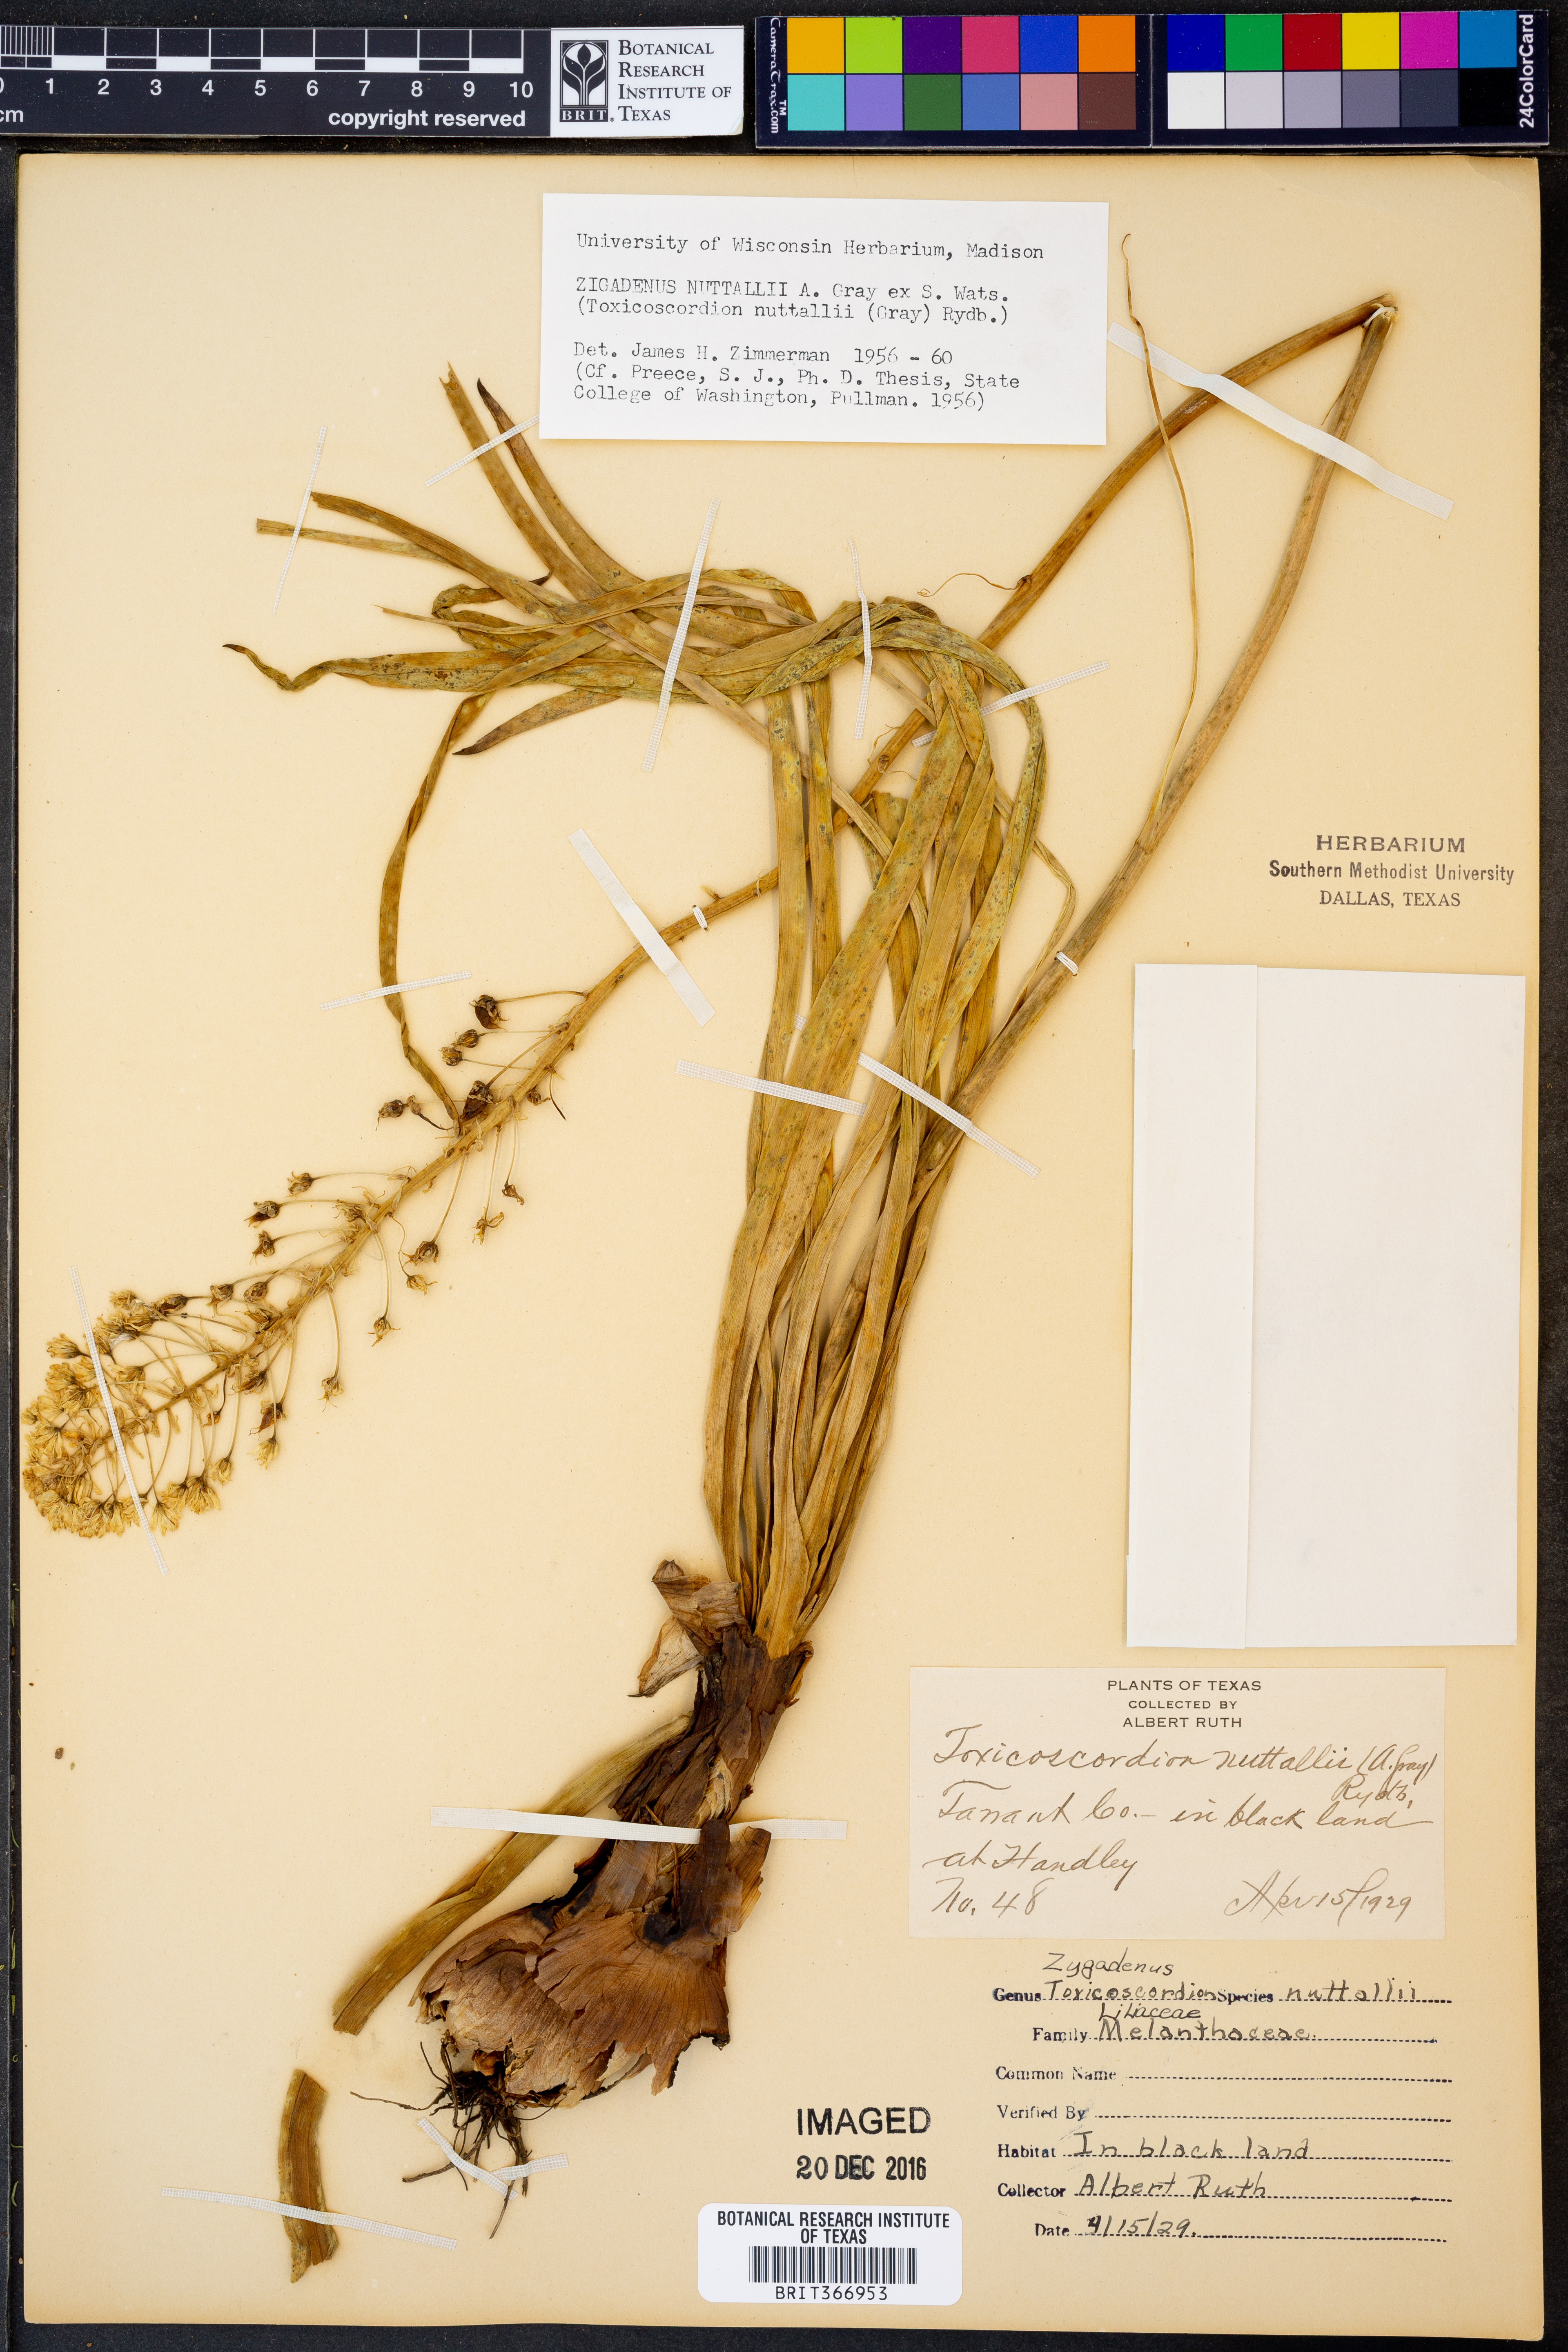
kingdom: Plantae
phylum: Tracheophyta
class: Liliopsida
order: Liliales
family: Melanthiaceae
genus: Toxicoscordion
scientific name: Toxicoscordion nuttallii
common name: Poison sego
